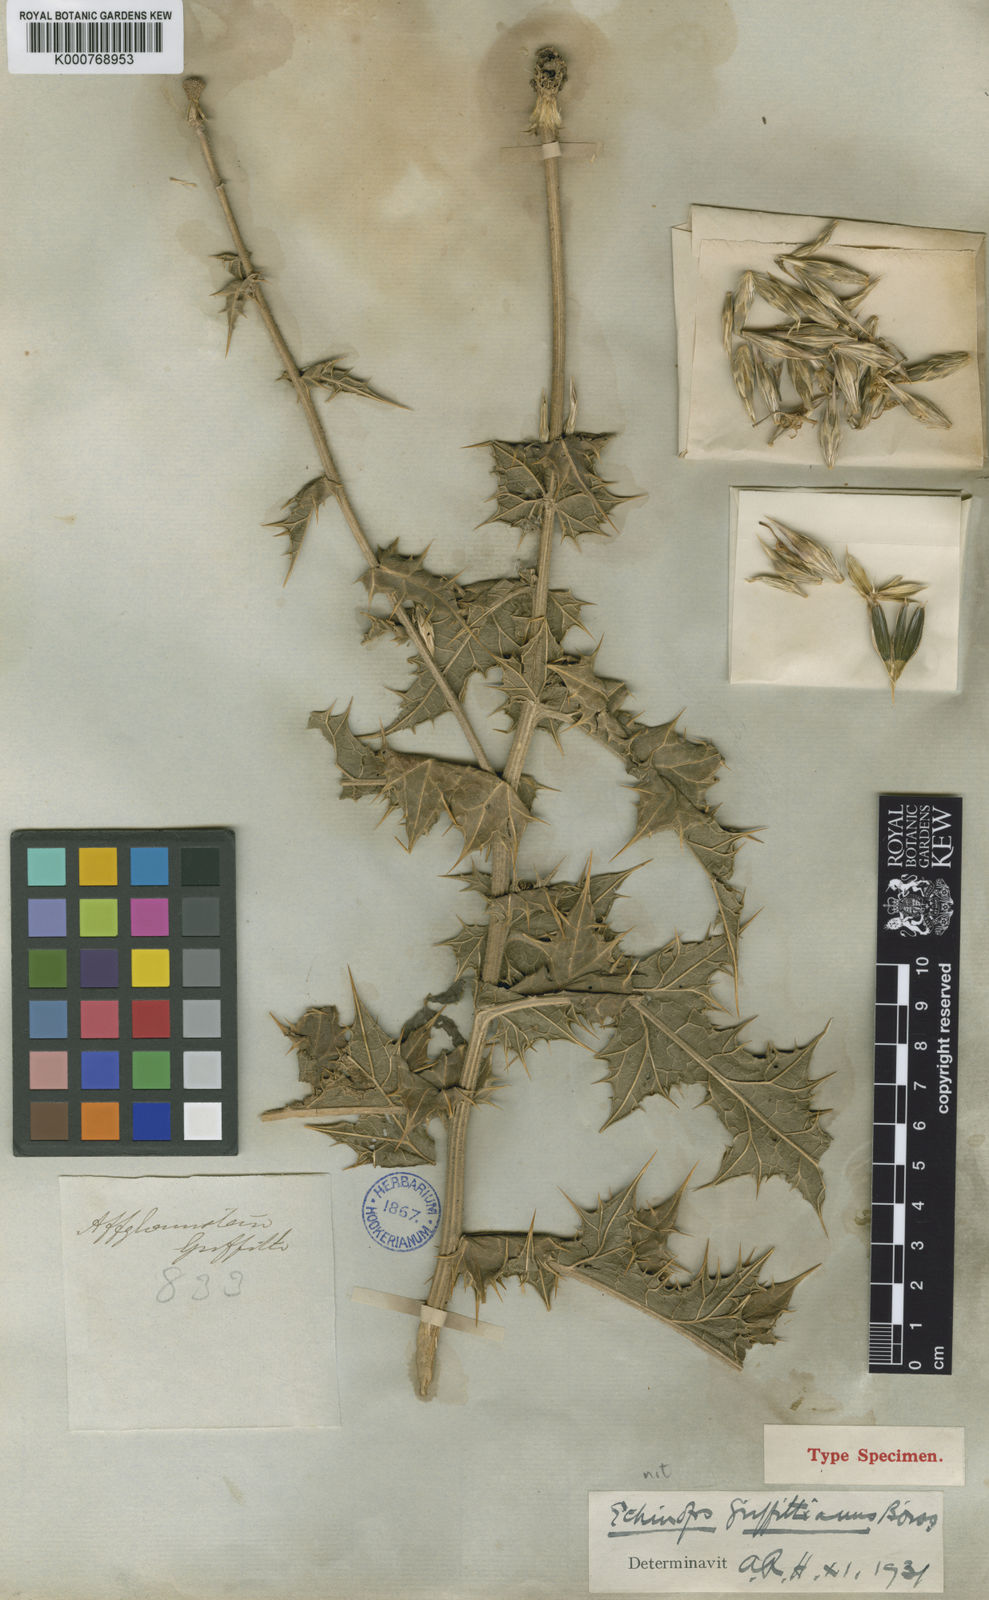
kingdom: Plantae
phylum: Tracheophyta
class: Magnoliopsida
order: Asterales
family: Asteraceae
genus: Echinops
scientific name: Echinops griffithianus
